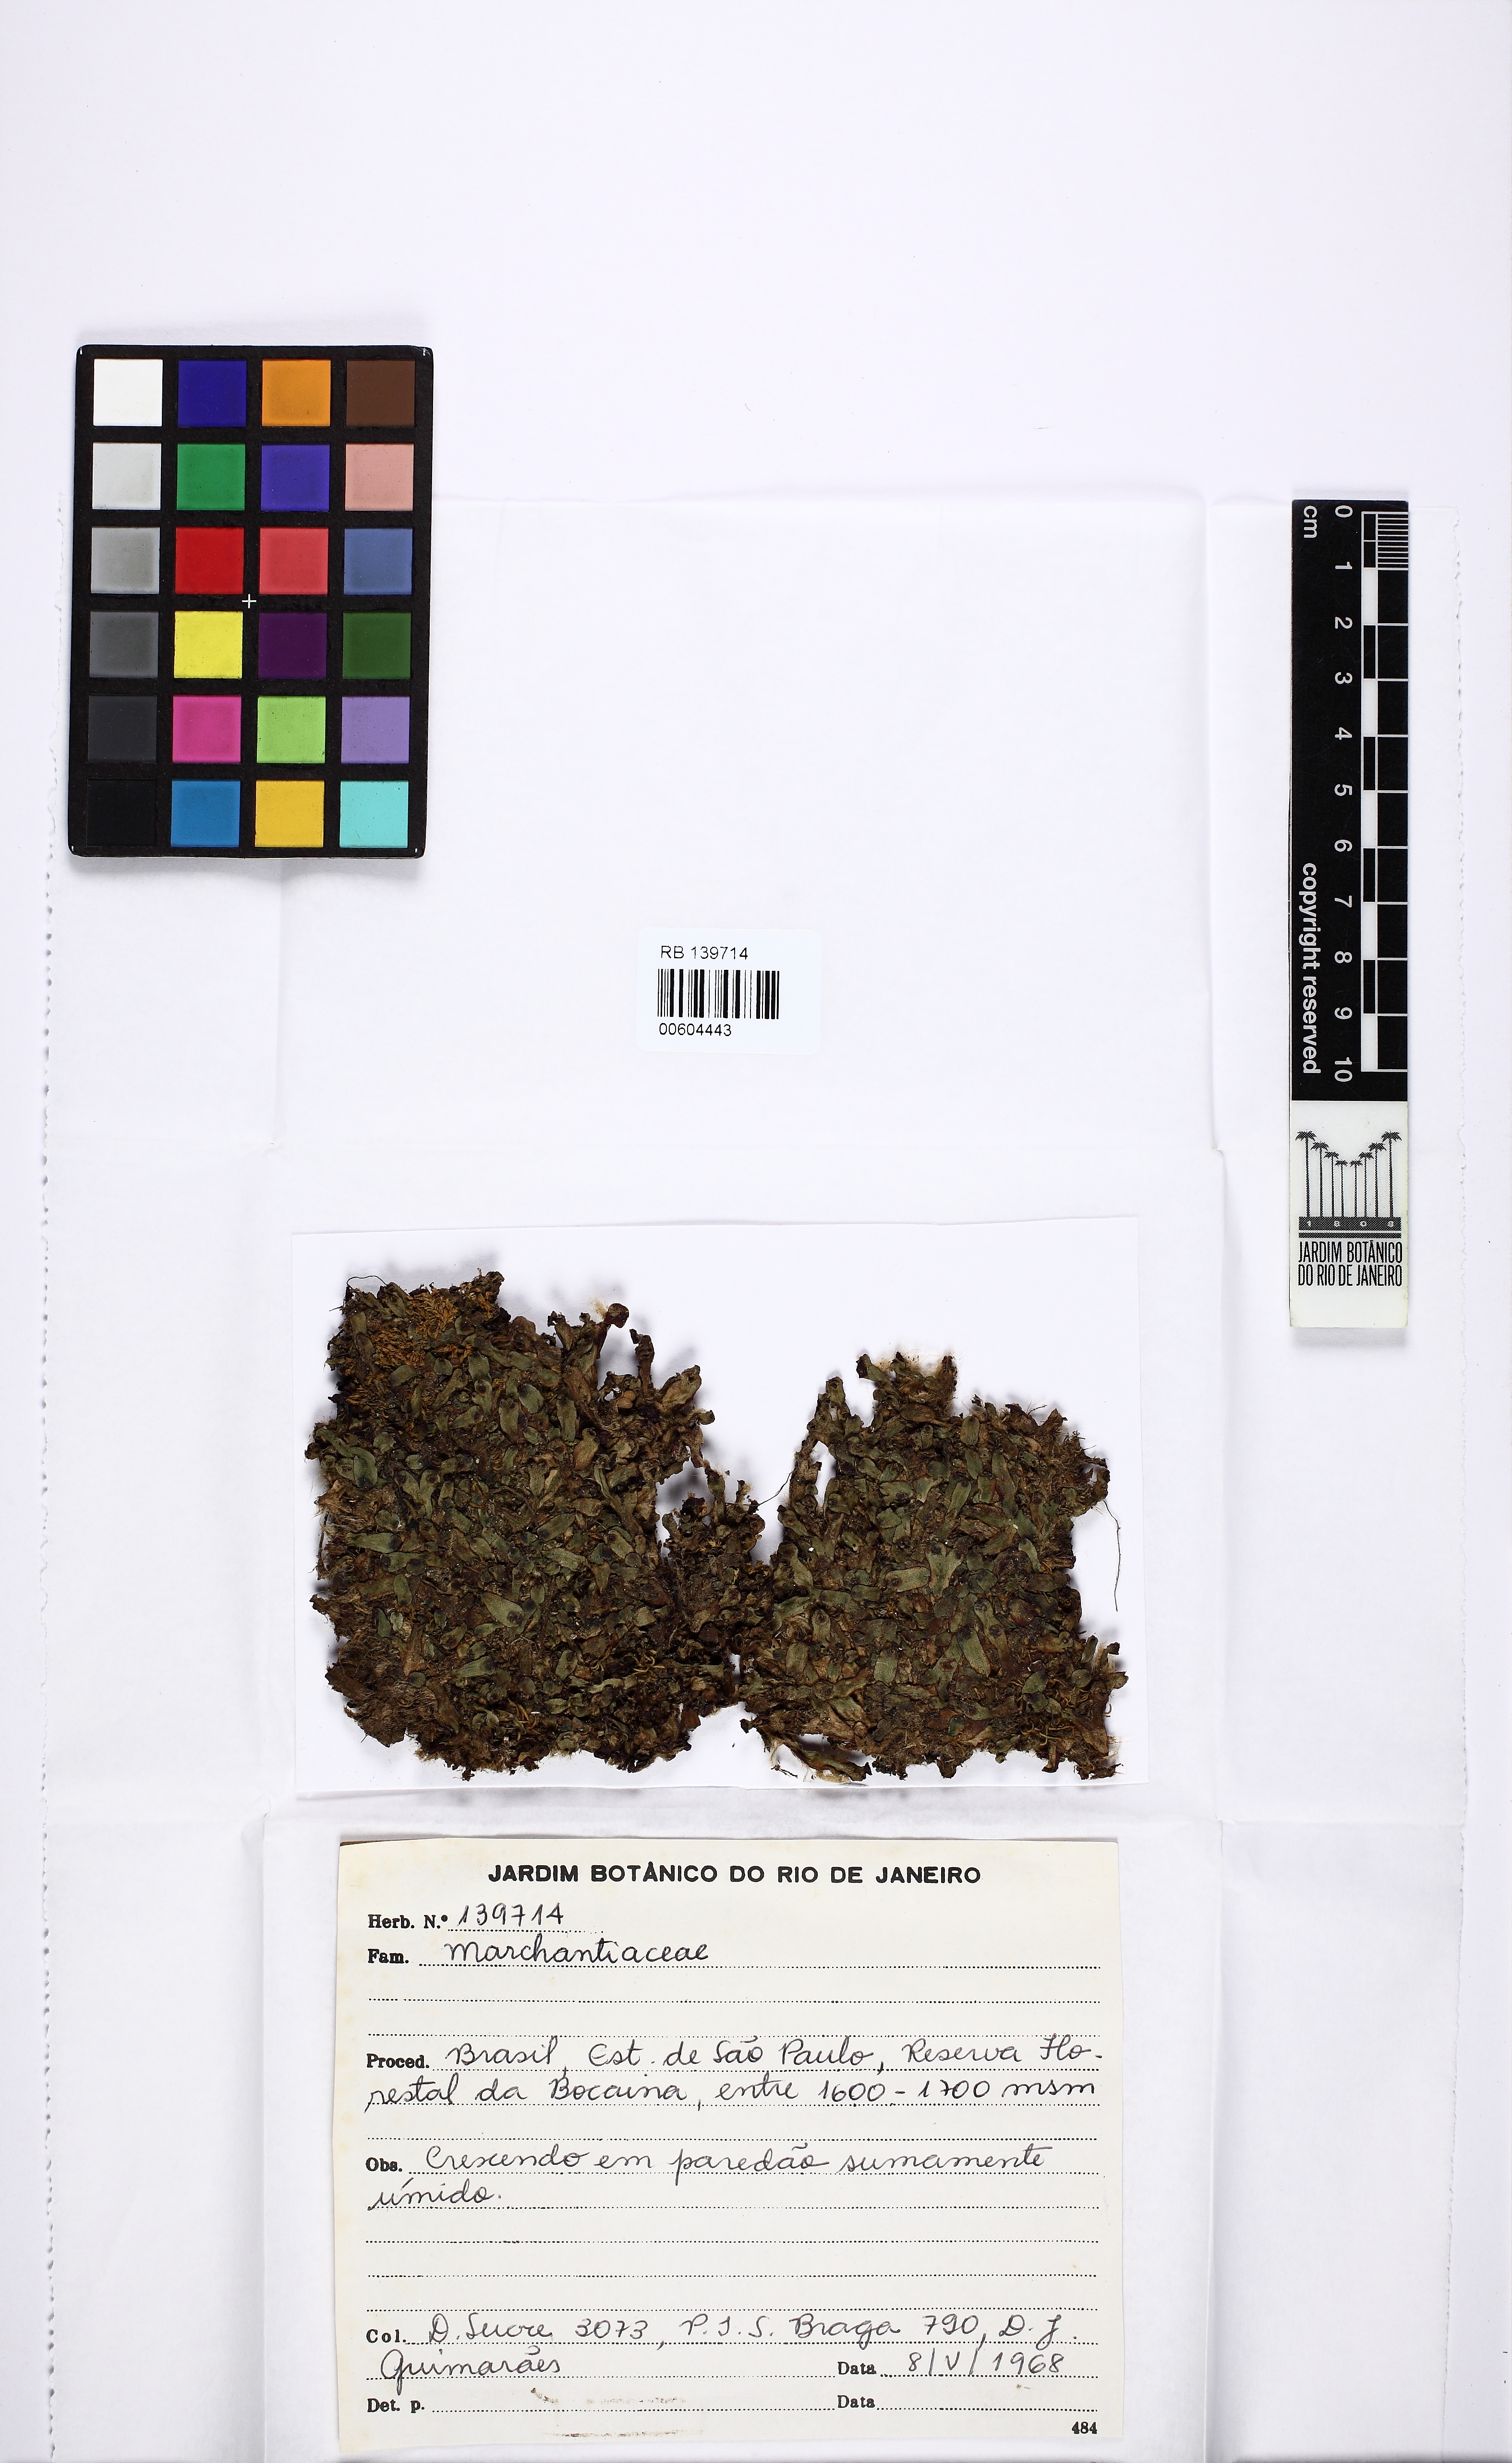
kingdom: Plantae
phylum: Marchantiophyta
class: Marchantiopsida
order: Marchantiales
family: Marchantiaceae
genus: Marchantia
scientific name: Marchantia polymorpha
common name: Common liverwort
